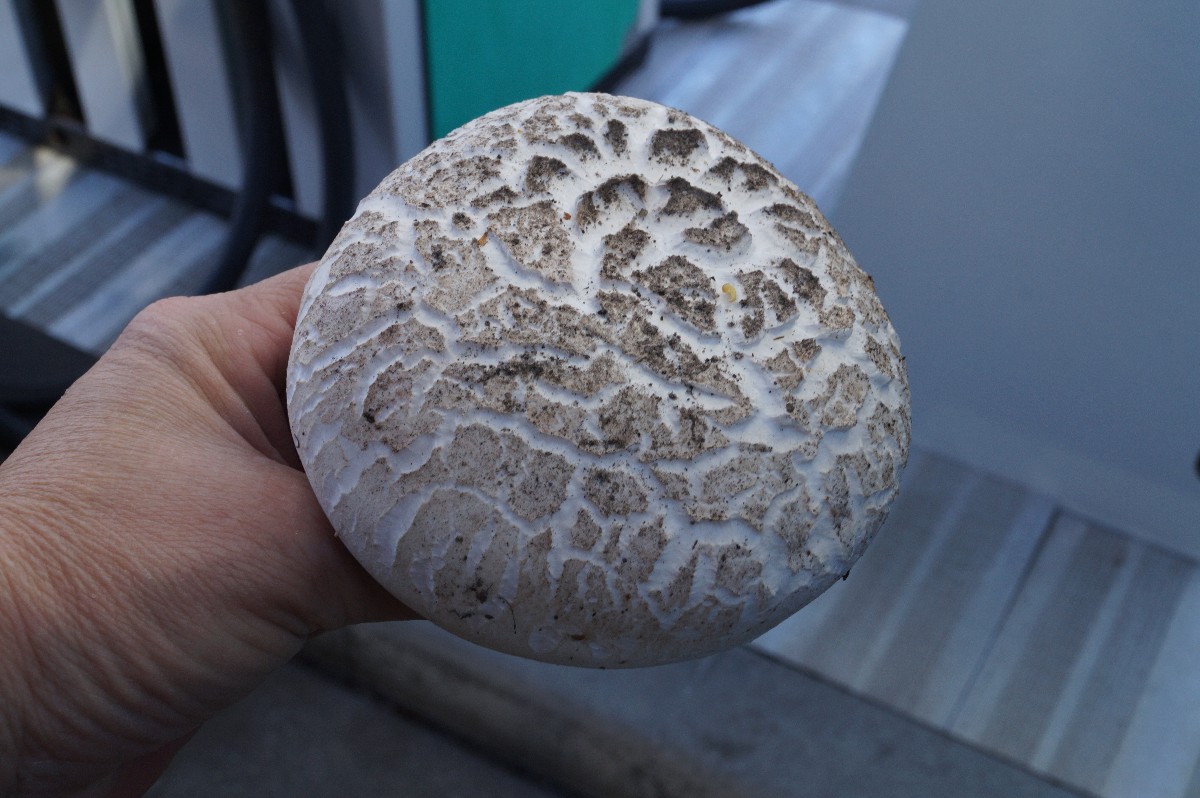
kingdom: Fungi
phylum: Basidiomycota
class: Agaricomycetes
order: Agaricales
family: Agaricaceae
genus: Agaricus
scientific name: Agaricus bernardii
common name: strandengs-champignon
